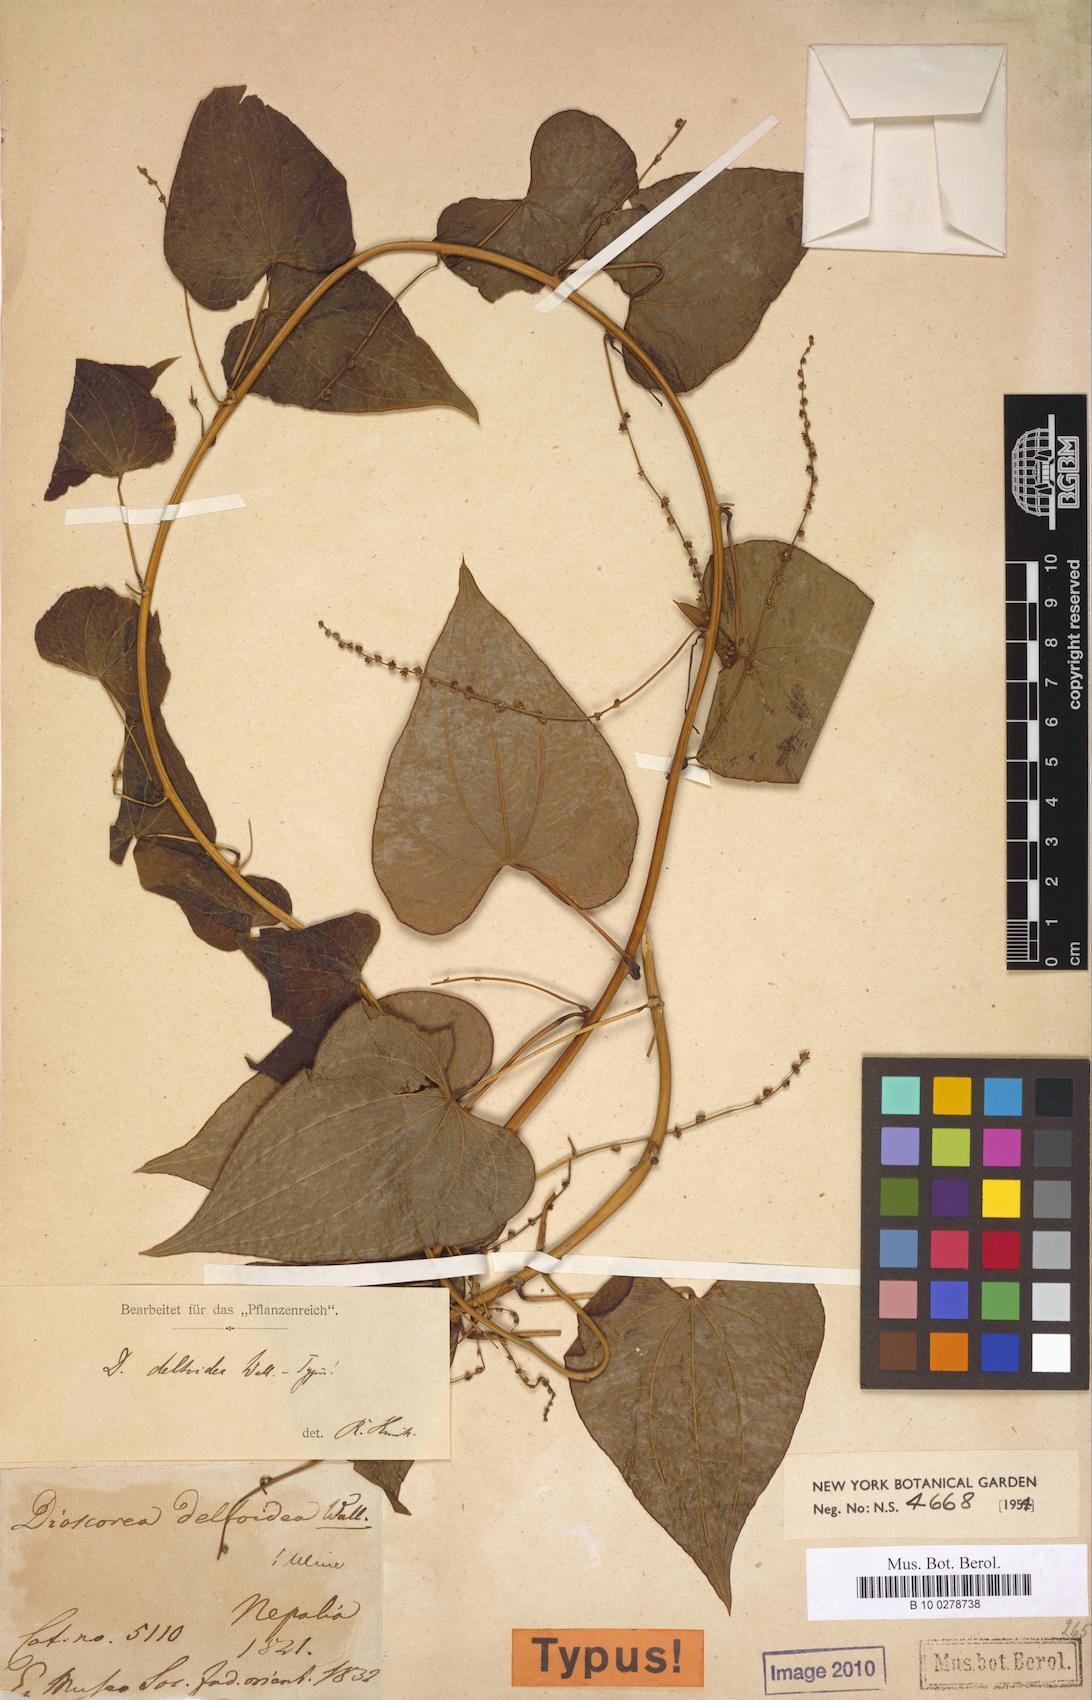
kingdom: Plantae
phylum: Tracheophyta
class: Liliopsida
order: Dioscoreales
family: Dioscoreaceae
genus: Dioscorea
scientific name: Dioscorea deltoidea
